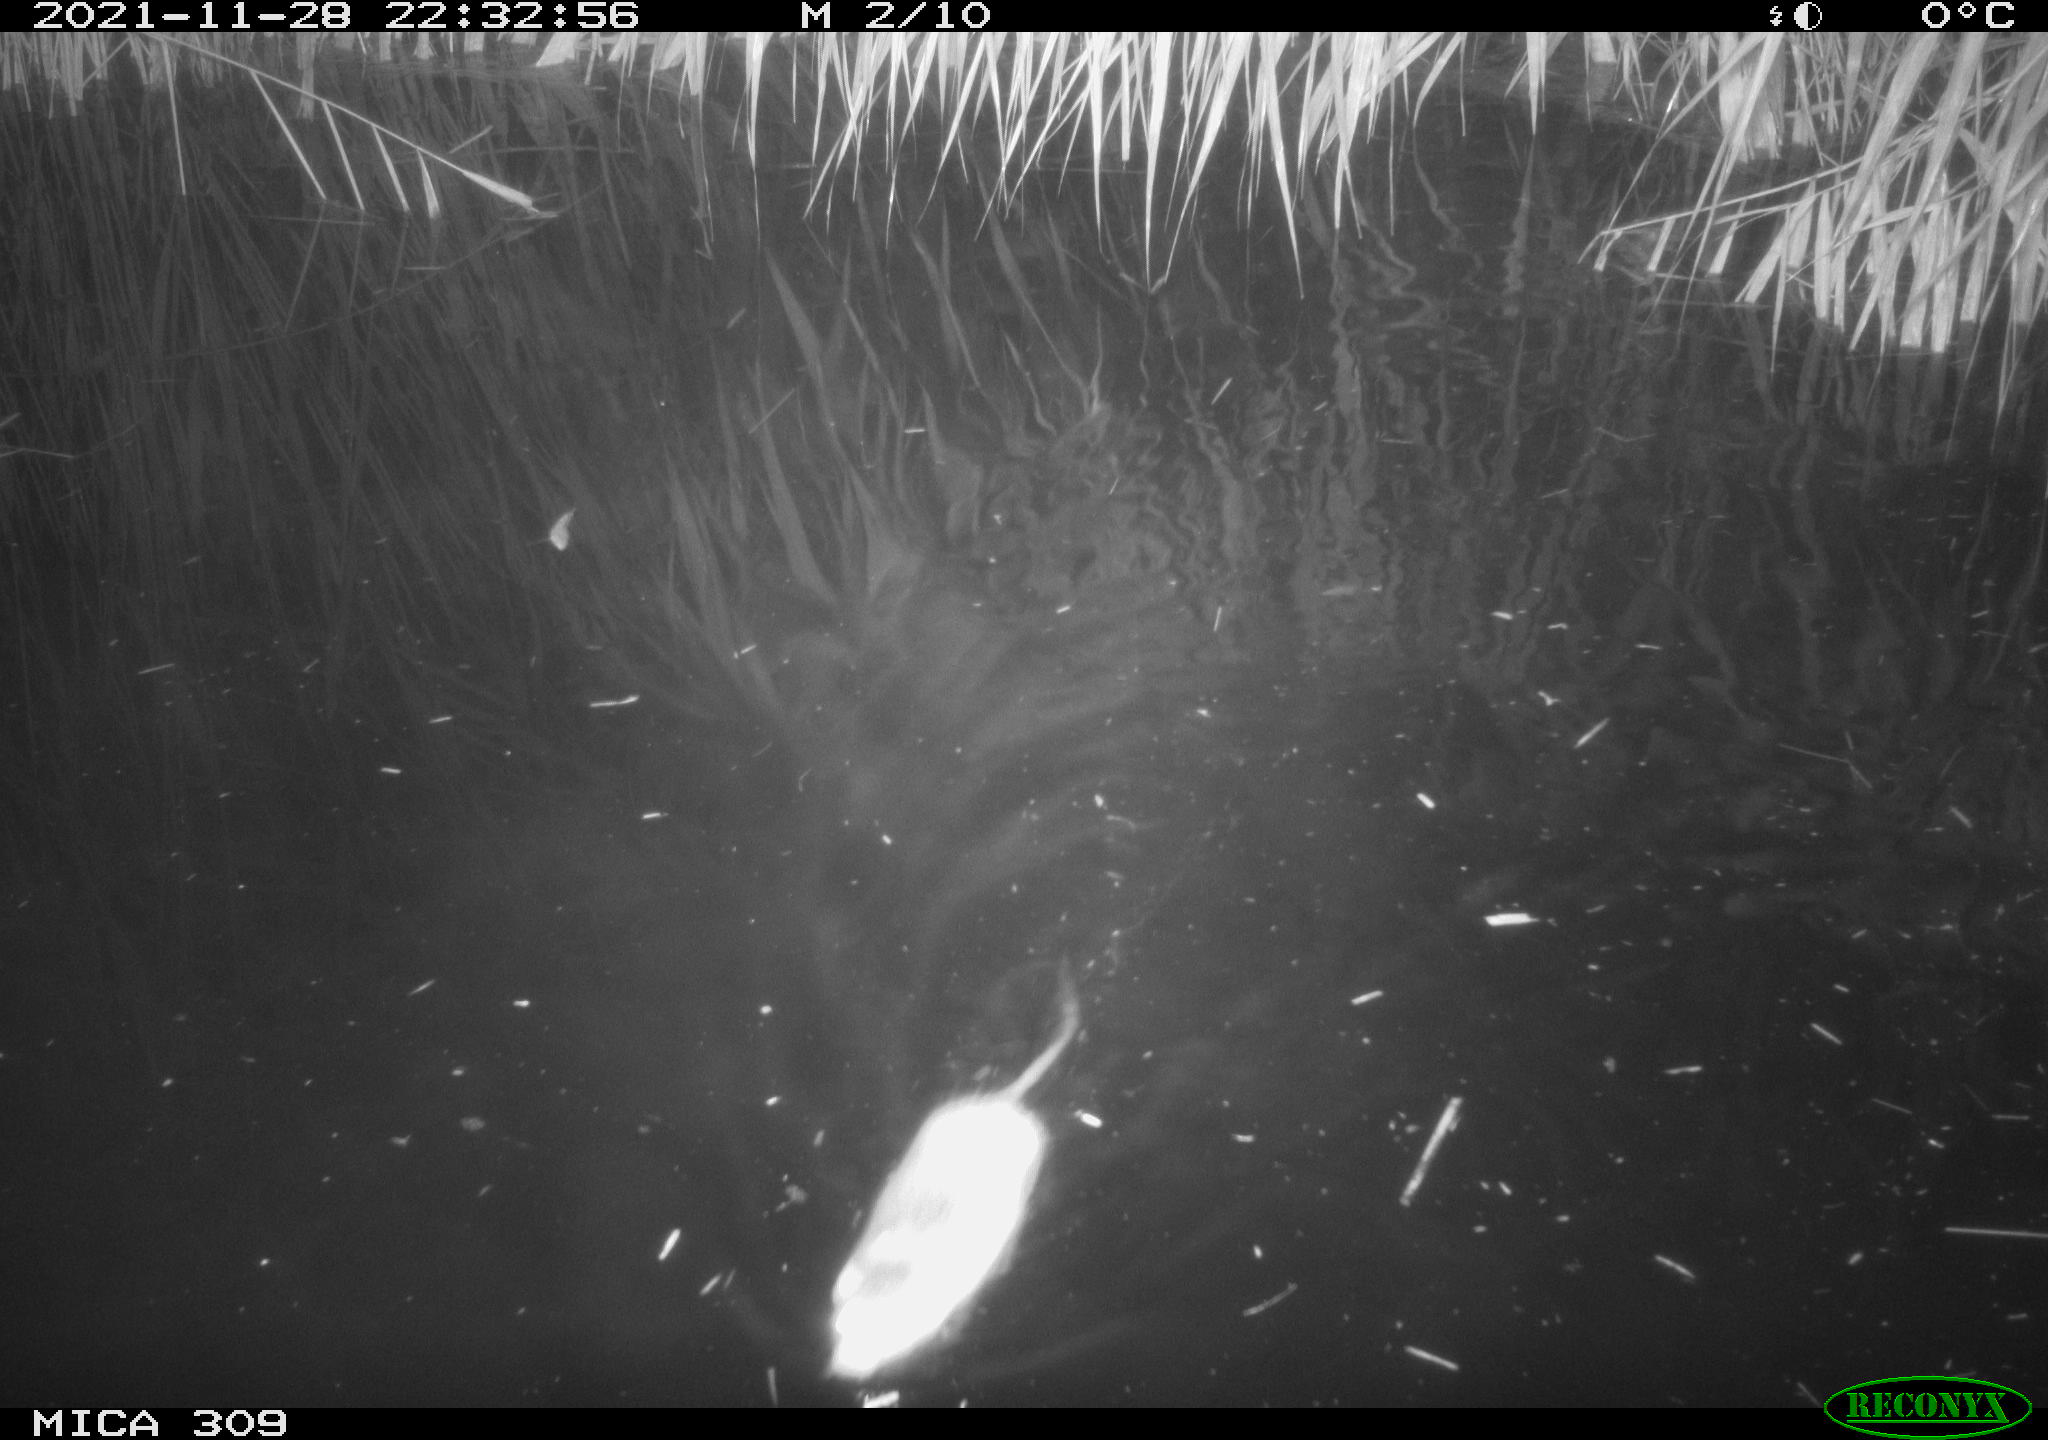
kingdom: Animalia
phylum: Chordata
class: Mammalia
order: Rodentia
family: Muridae
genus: Rattus
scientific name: Rattus norvegicus
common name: Brown rat
